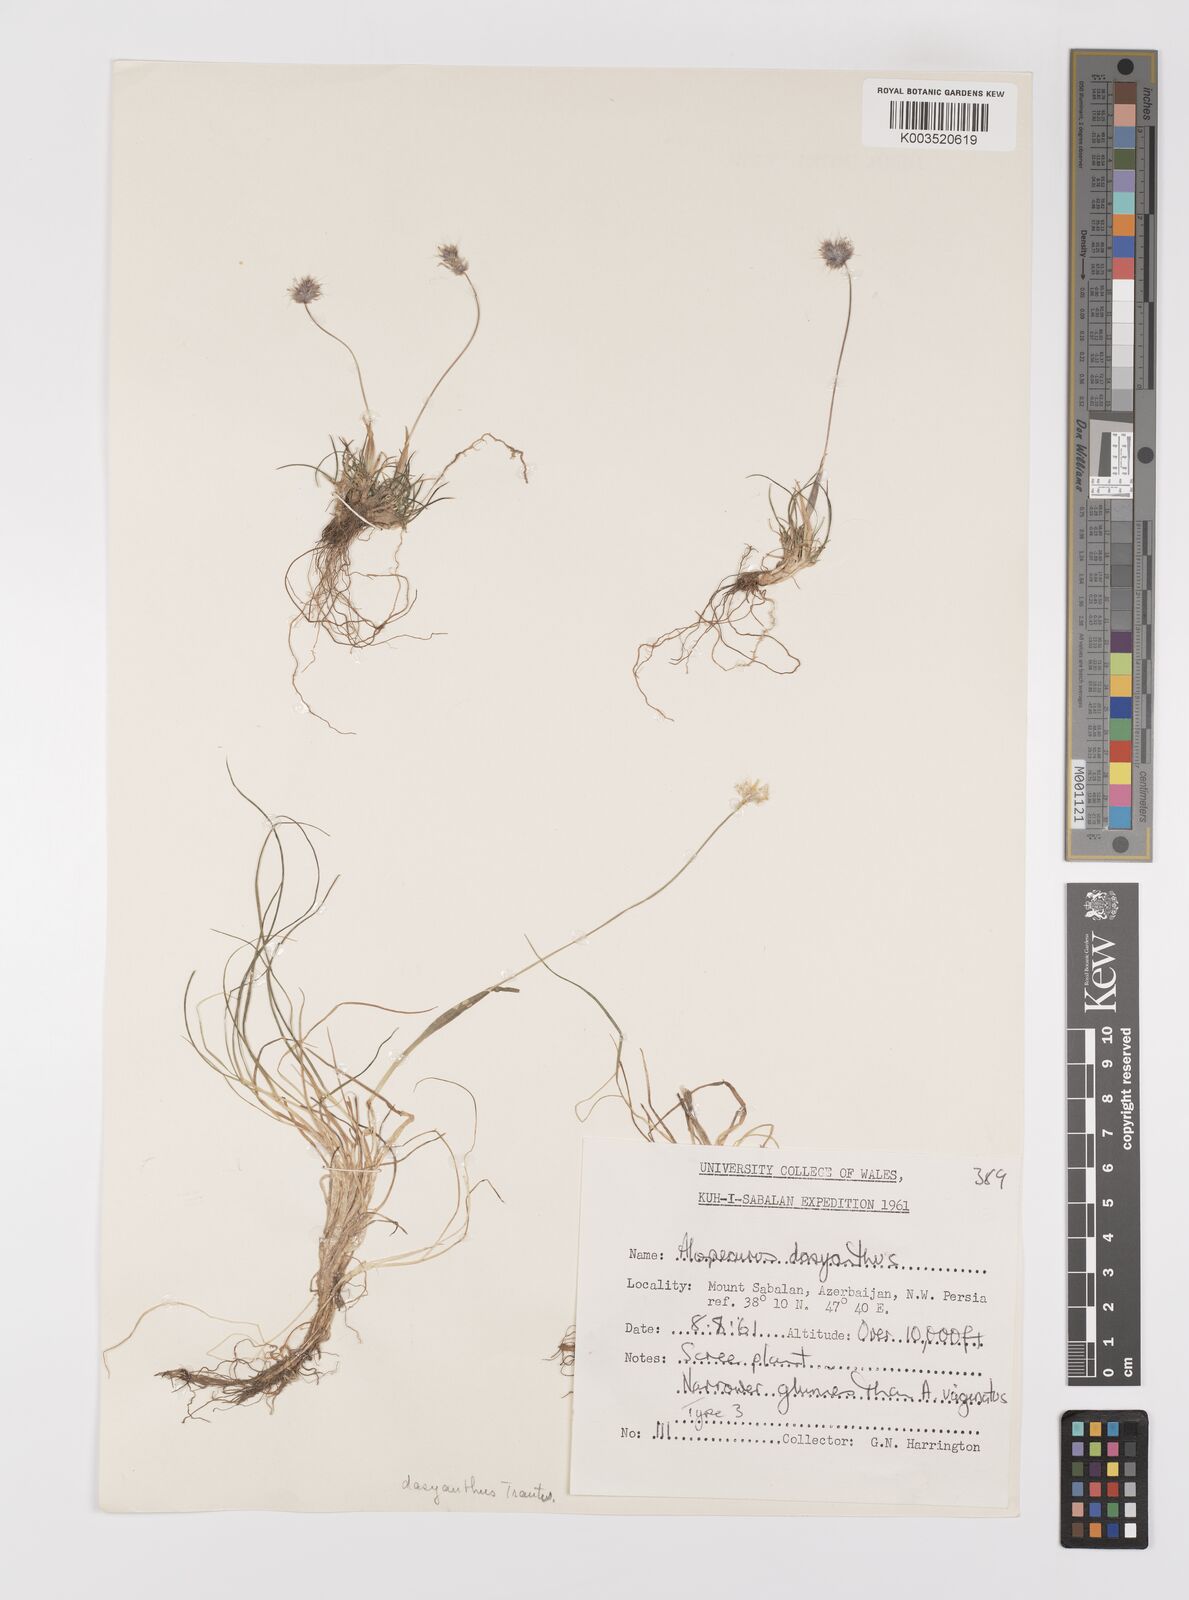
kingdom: Plantae
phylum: Tracheophyta
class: Liliopsida
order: Poales
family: Poaceae
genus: Alopecurus
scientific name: Alopecurus dasyanthus
